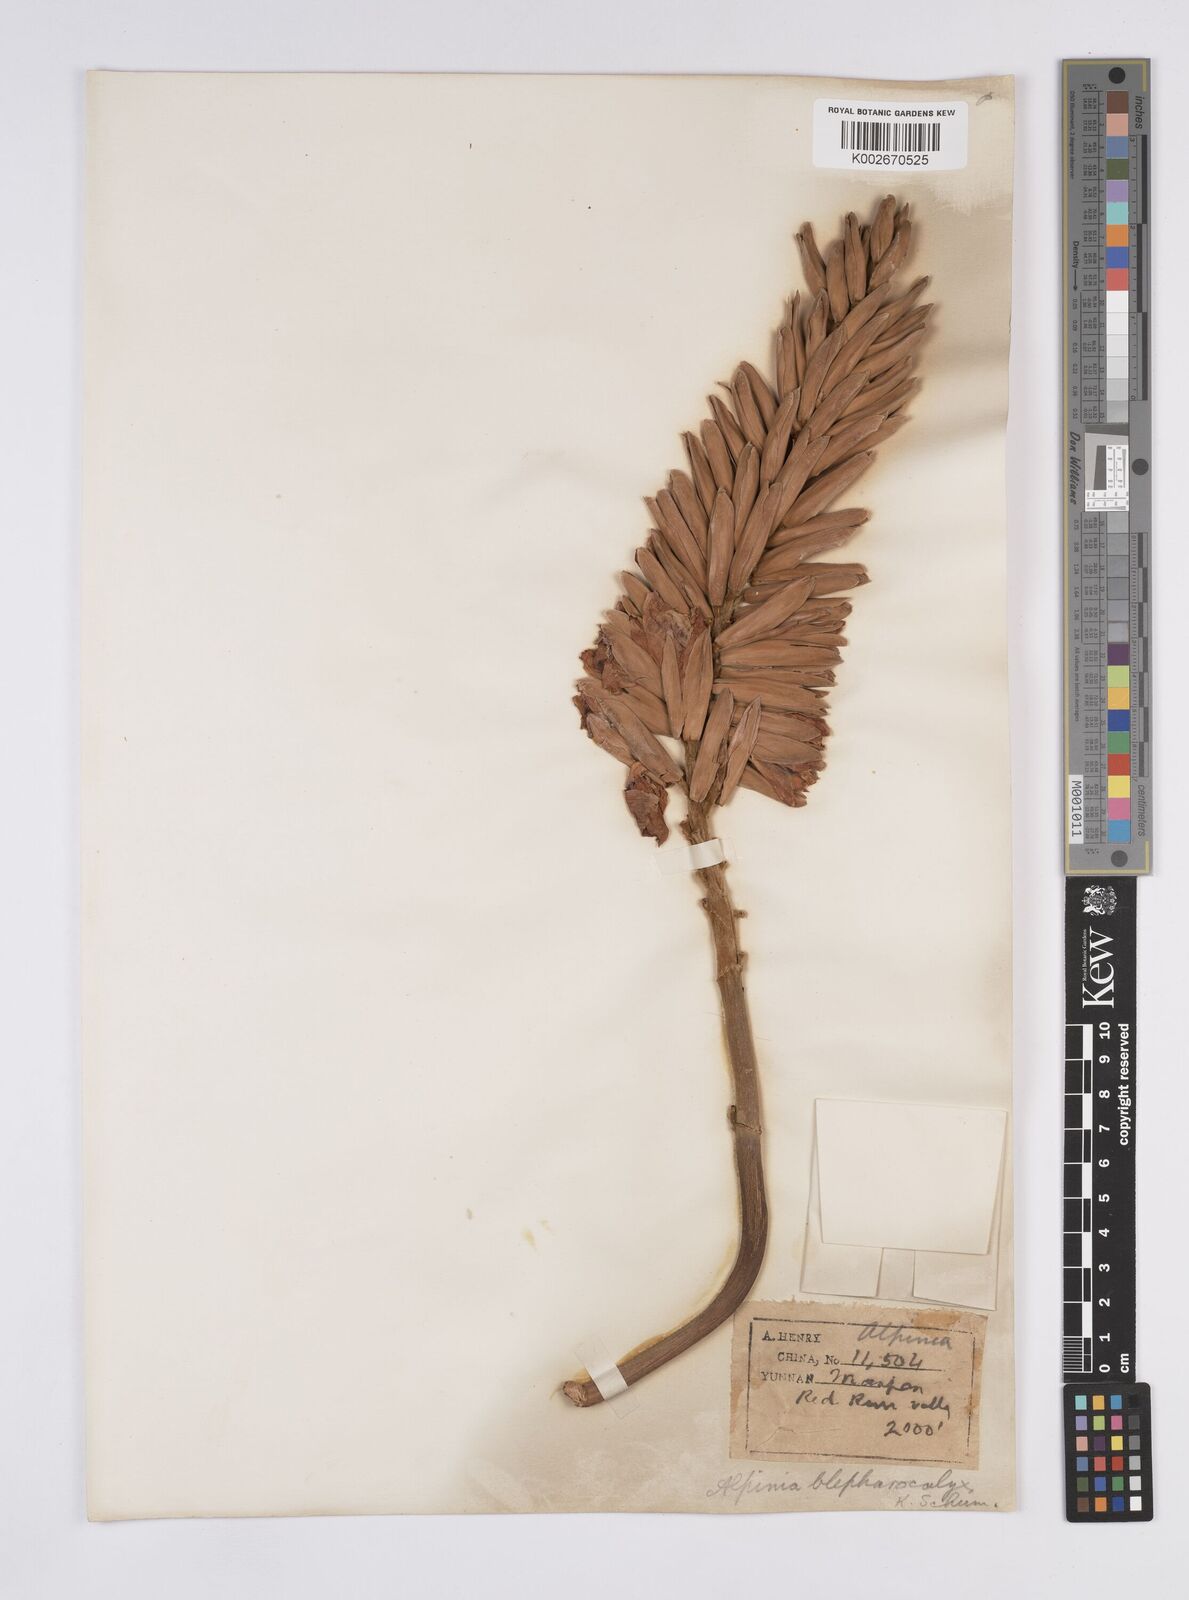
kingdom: Plantae
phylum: Tracheophyta
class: Liliopsida
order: Zingiberales
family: Zingiberaceae
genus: Alpinia
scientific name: Alpinia roxburghii
